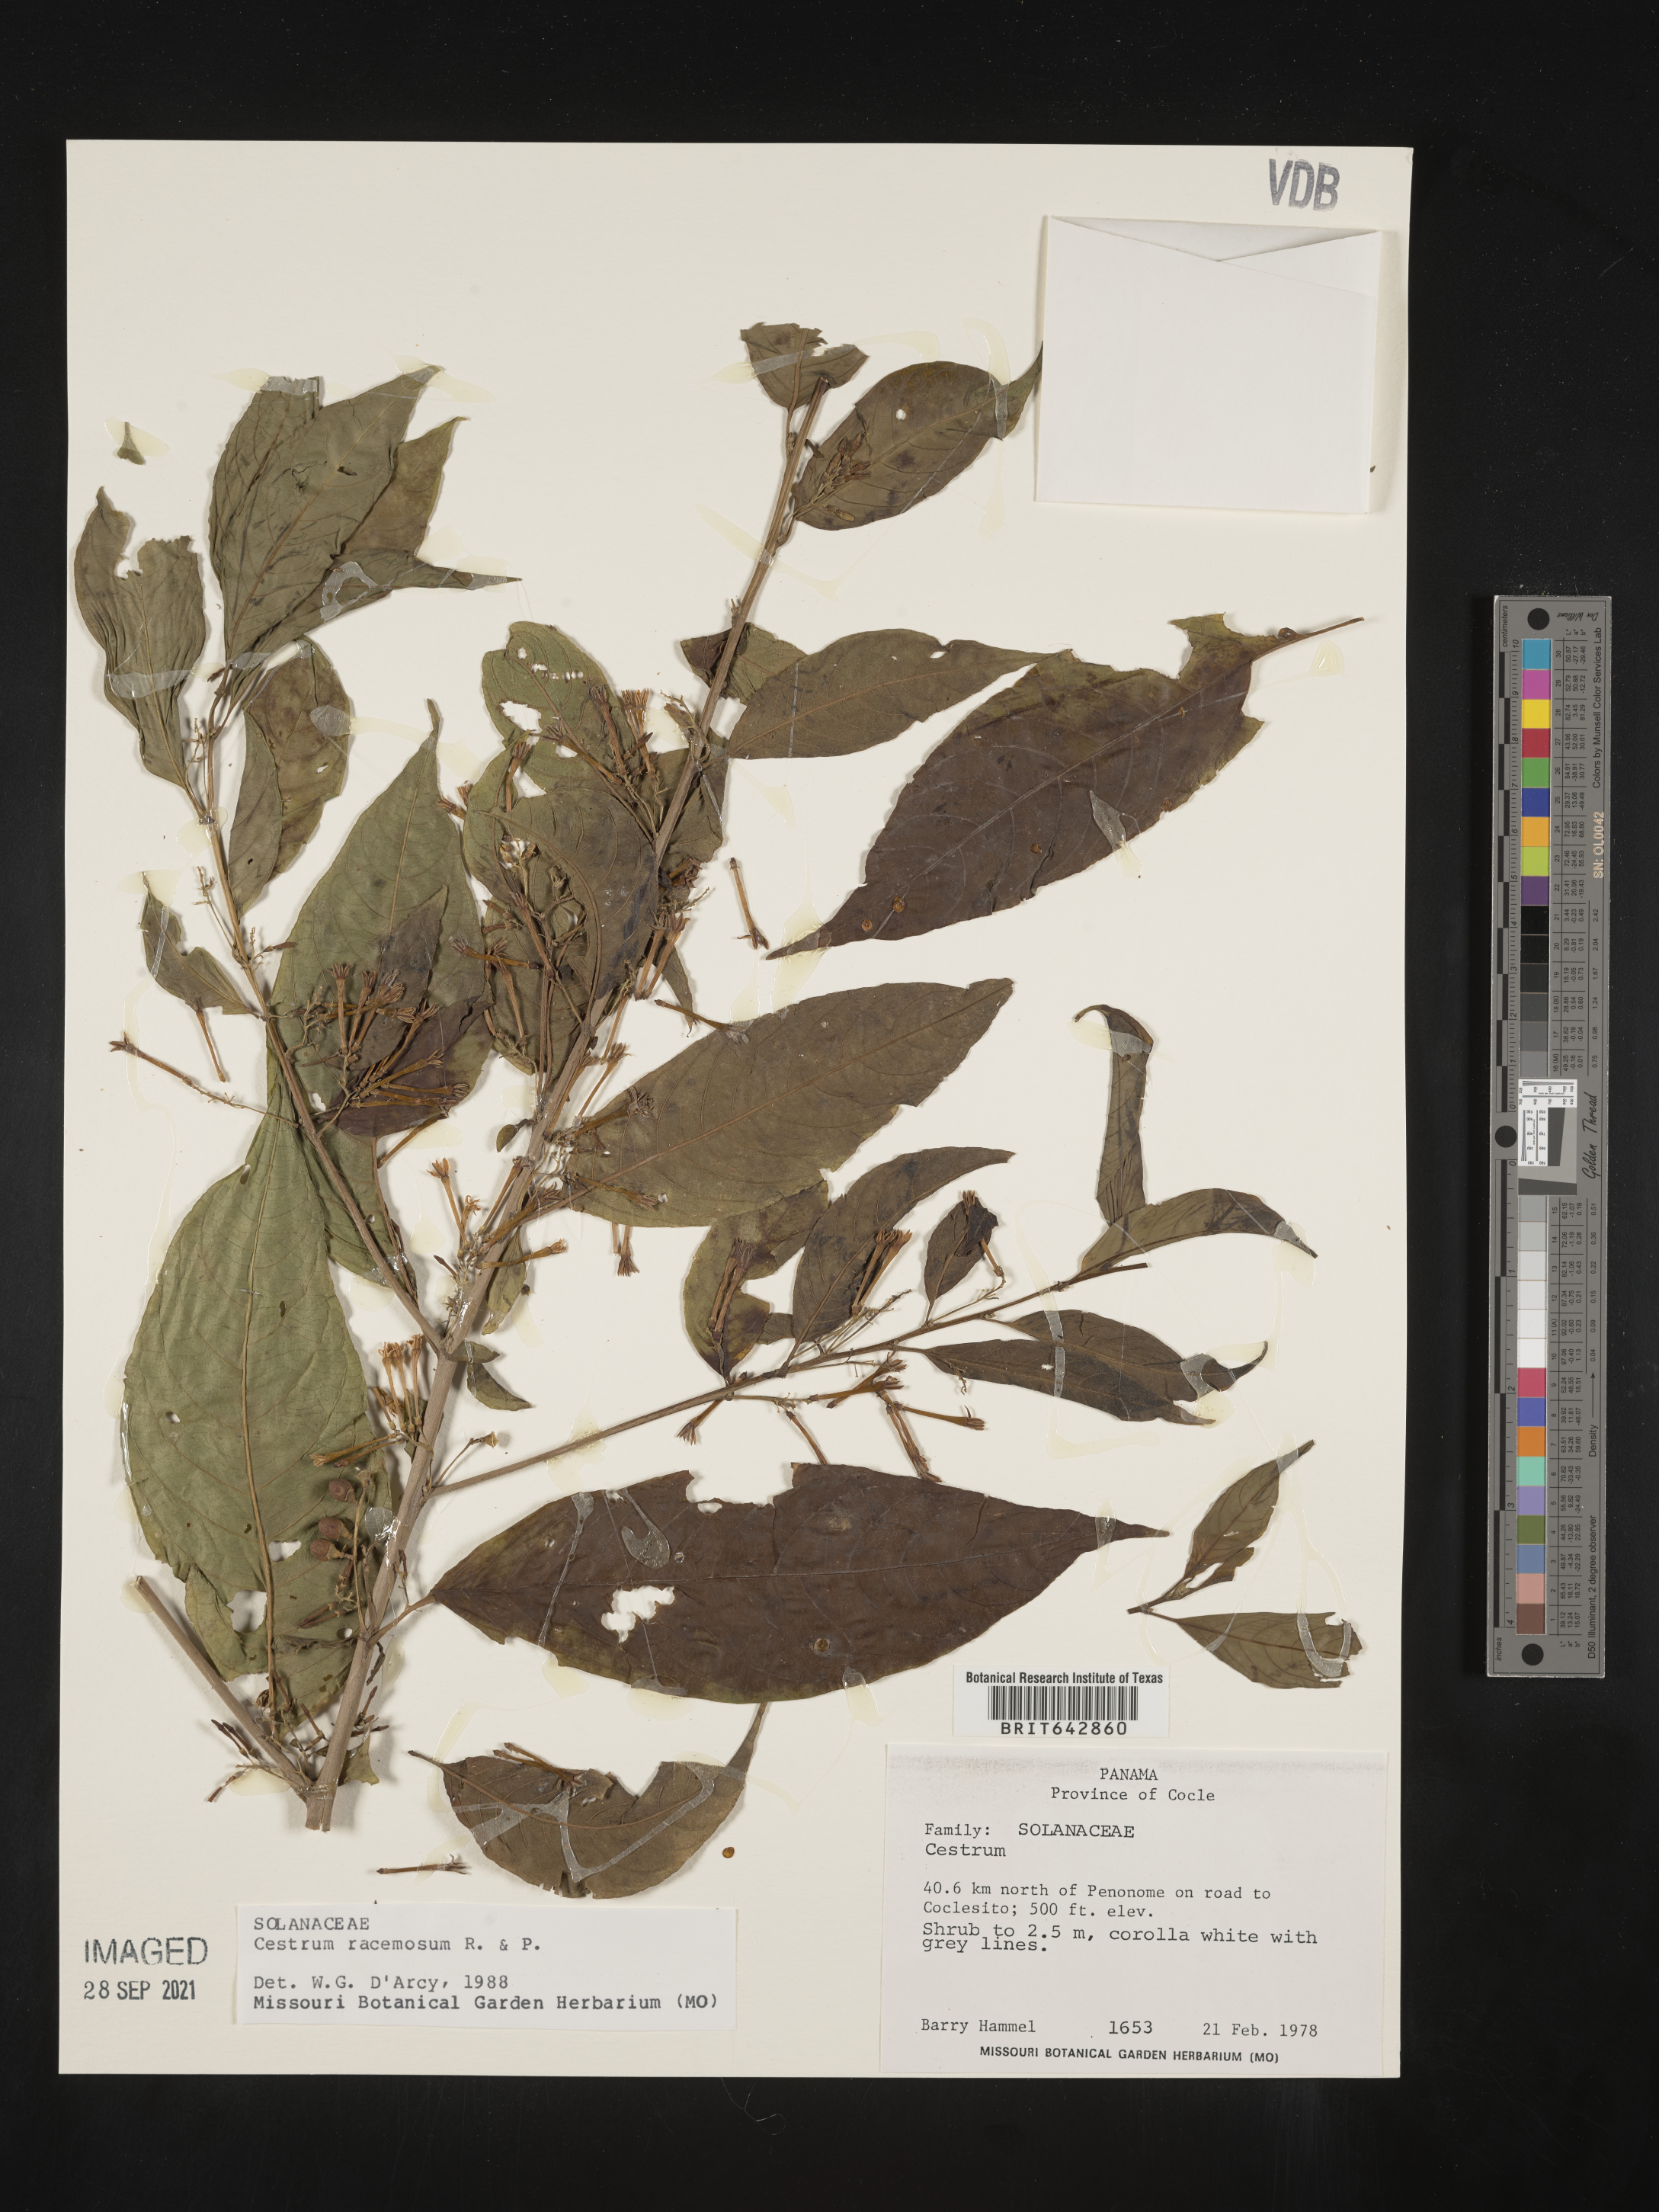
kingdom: Plantae
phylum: Tracheophyta
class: Magnoliopsida
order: Solanales
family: Solanaceae
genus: Cestrum
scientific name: Cestrum
